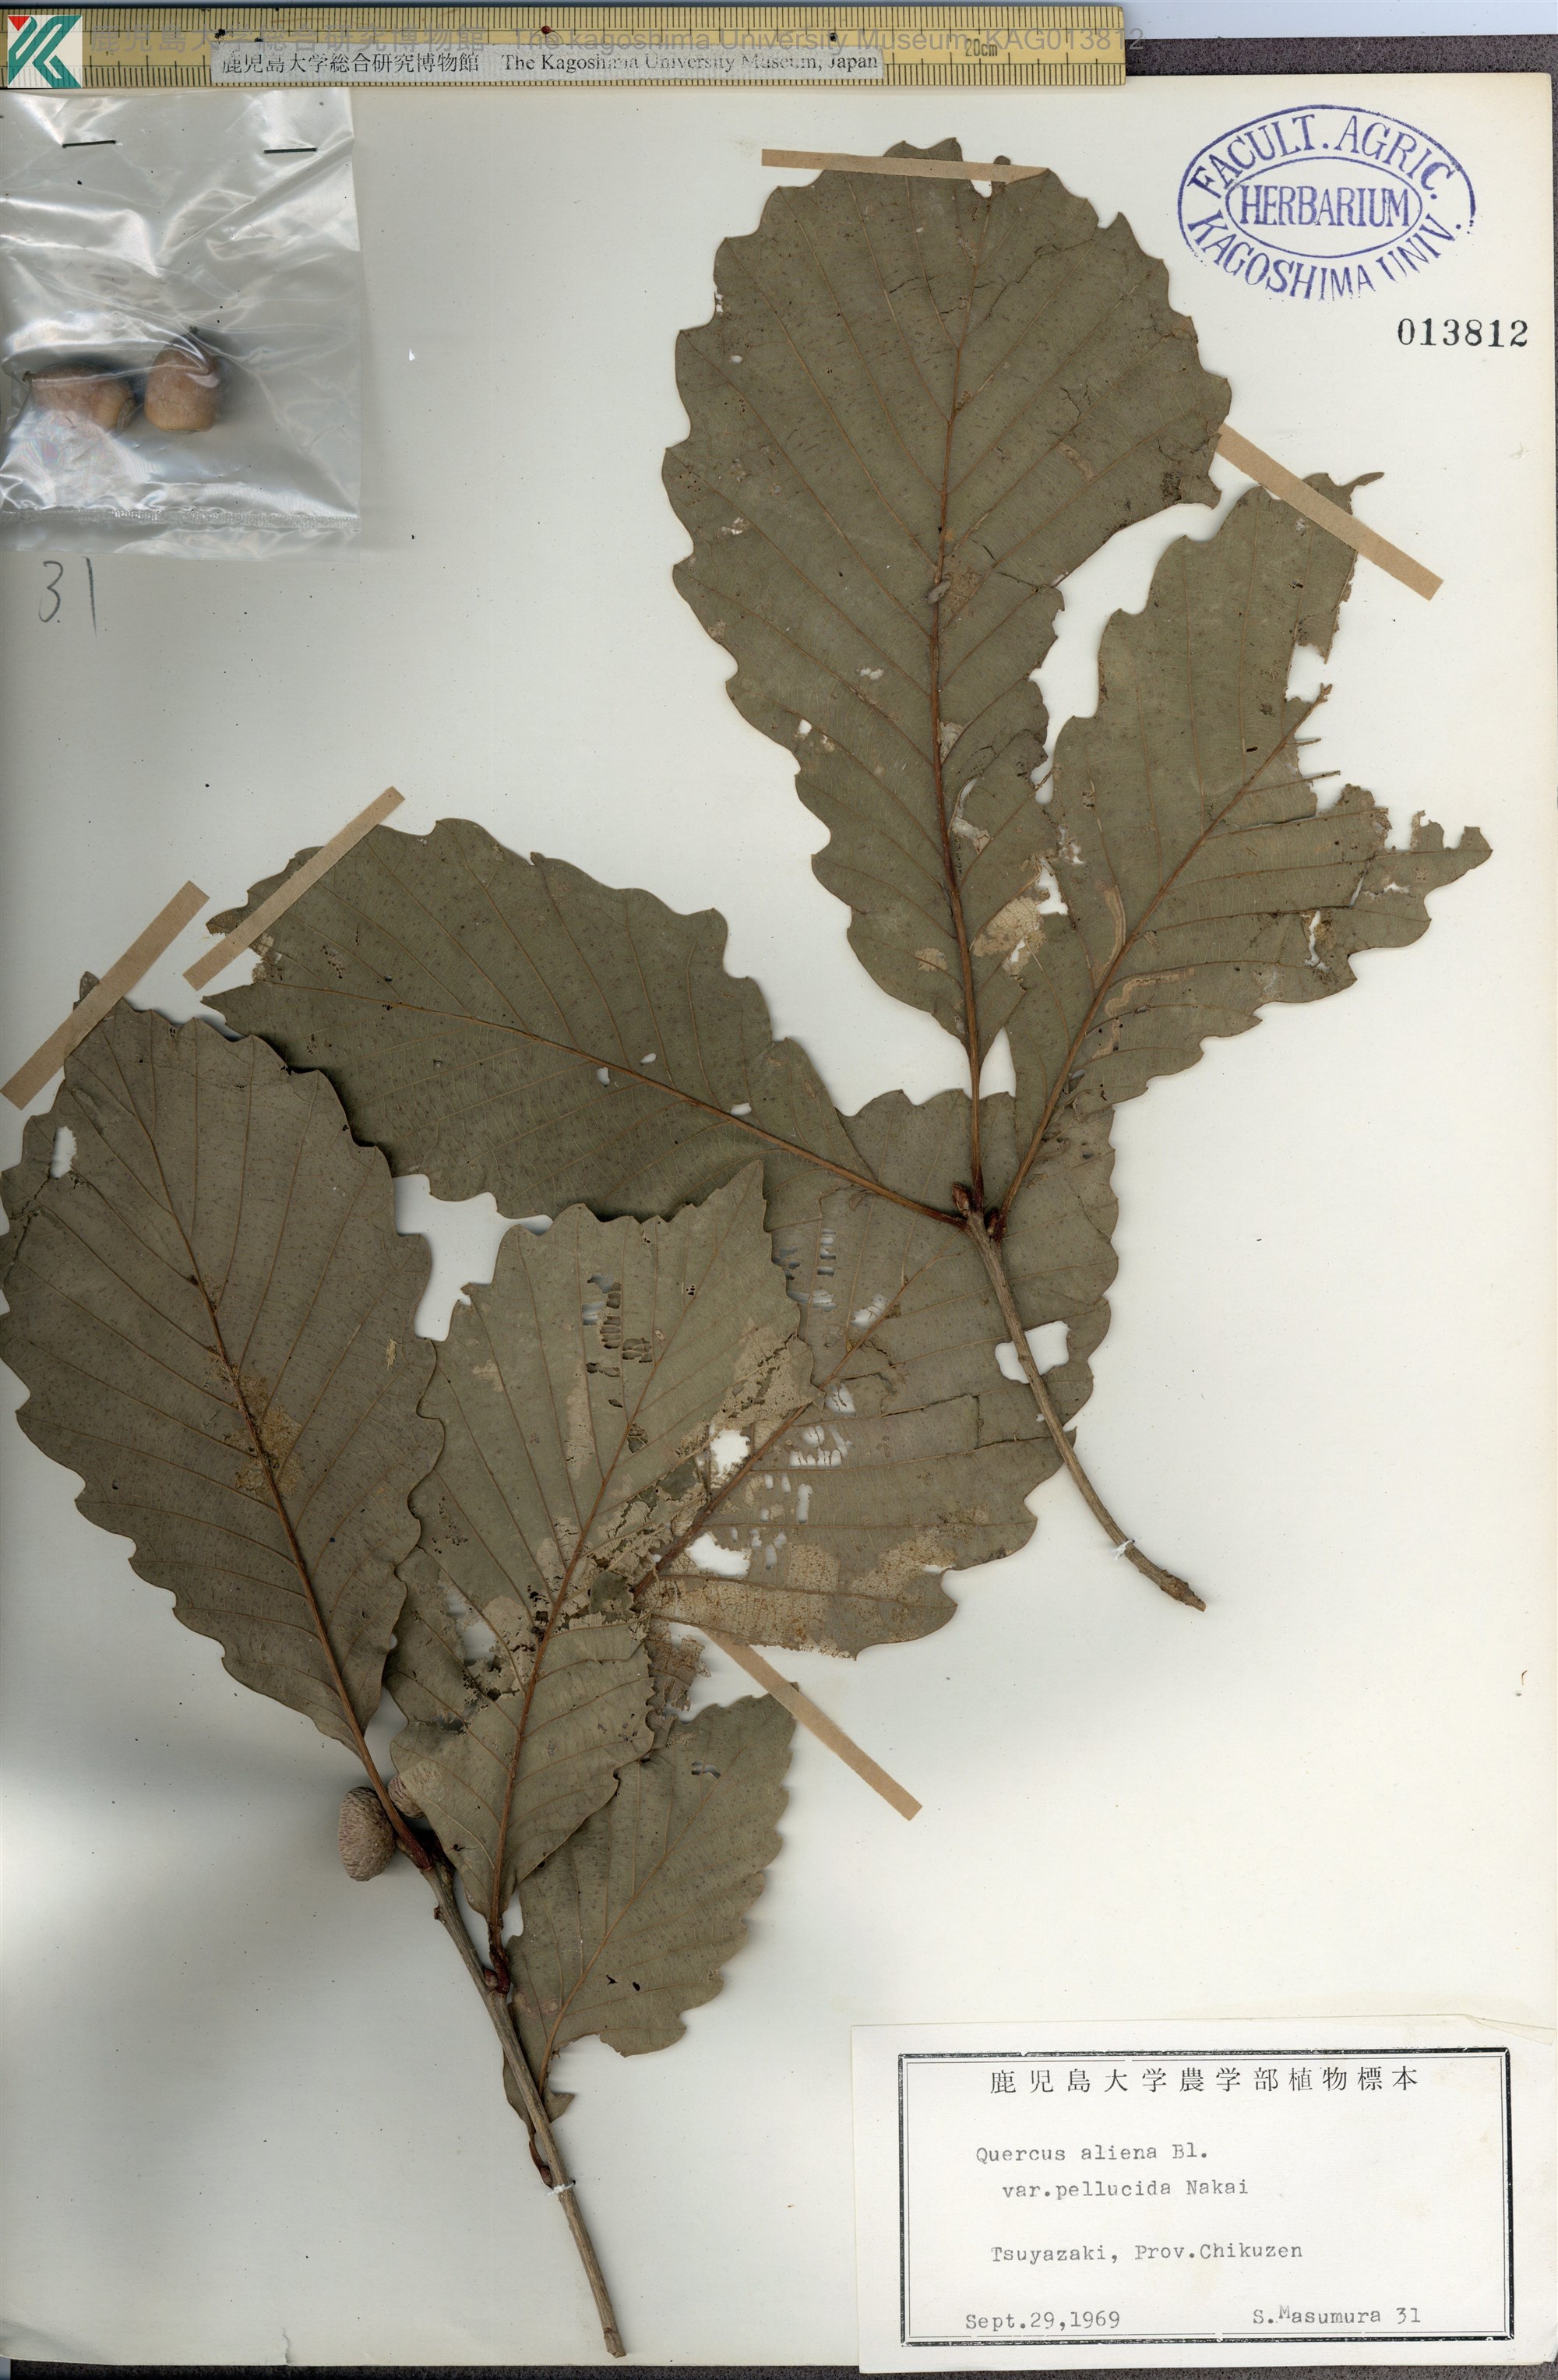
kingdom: Plantae
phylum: Tracheophyta
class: Magnoliopsida
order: Fagales
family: Fagaceae
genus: Quercus
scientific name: Quercus aliena
